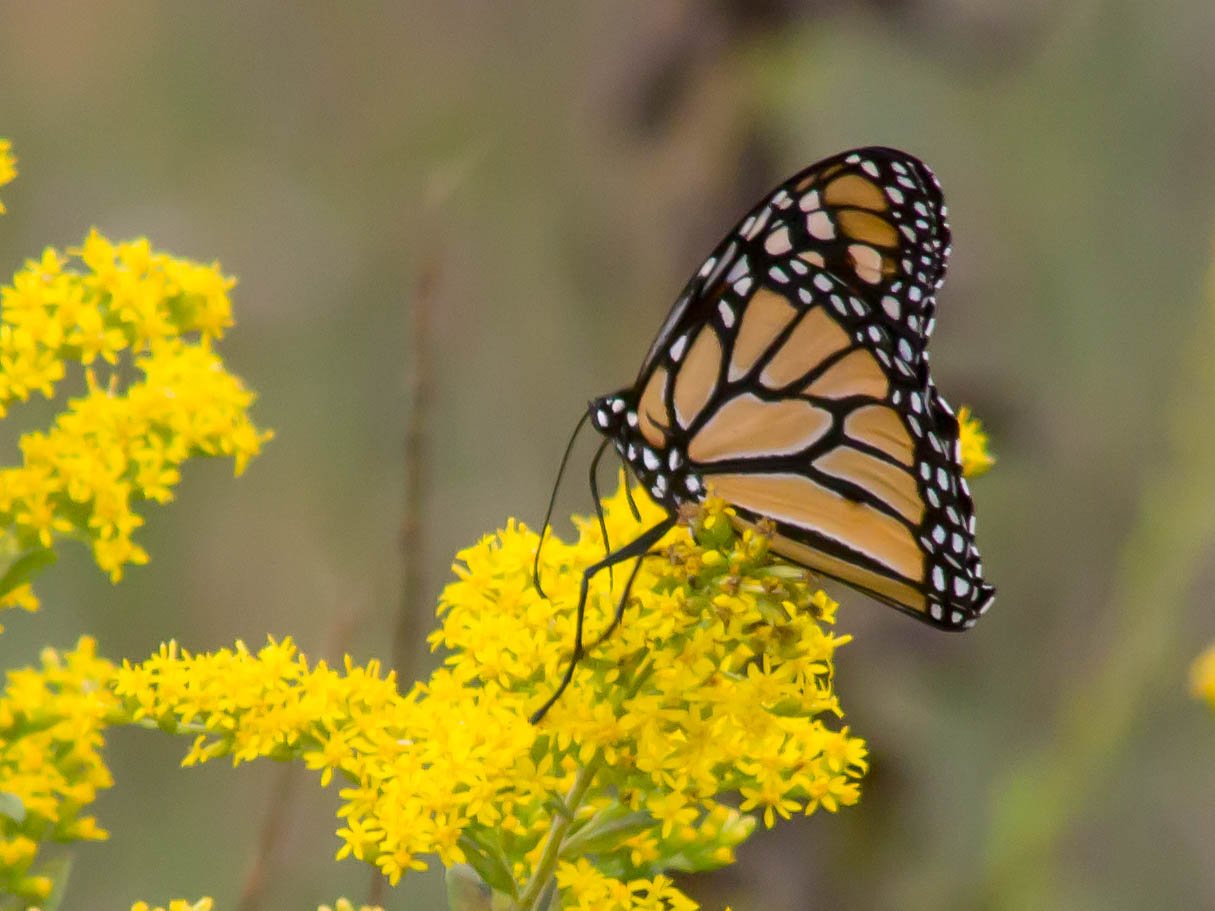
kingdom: Animalia
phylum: Arthropoda
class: Insecta
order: Lepidoptera
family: Nymphalidae
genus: Danaus
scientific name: Danaus plexippus
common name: Monarch
